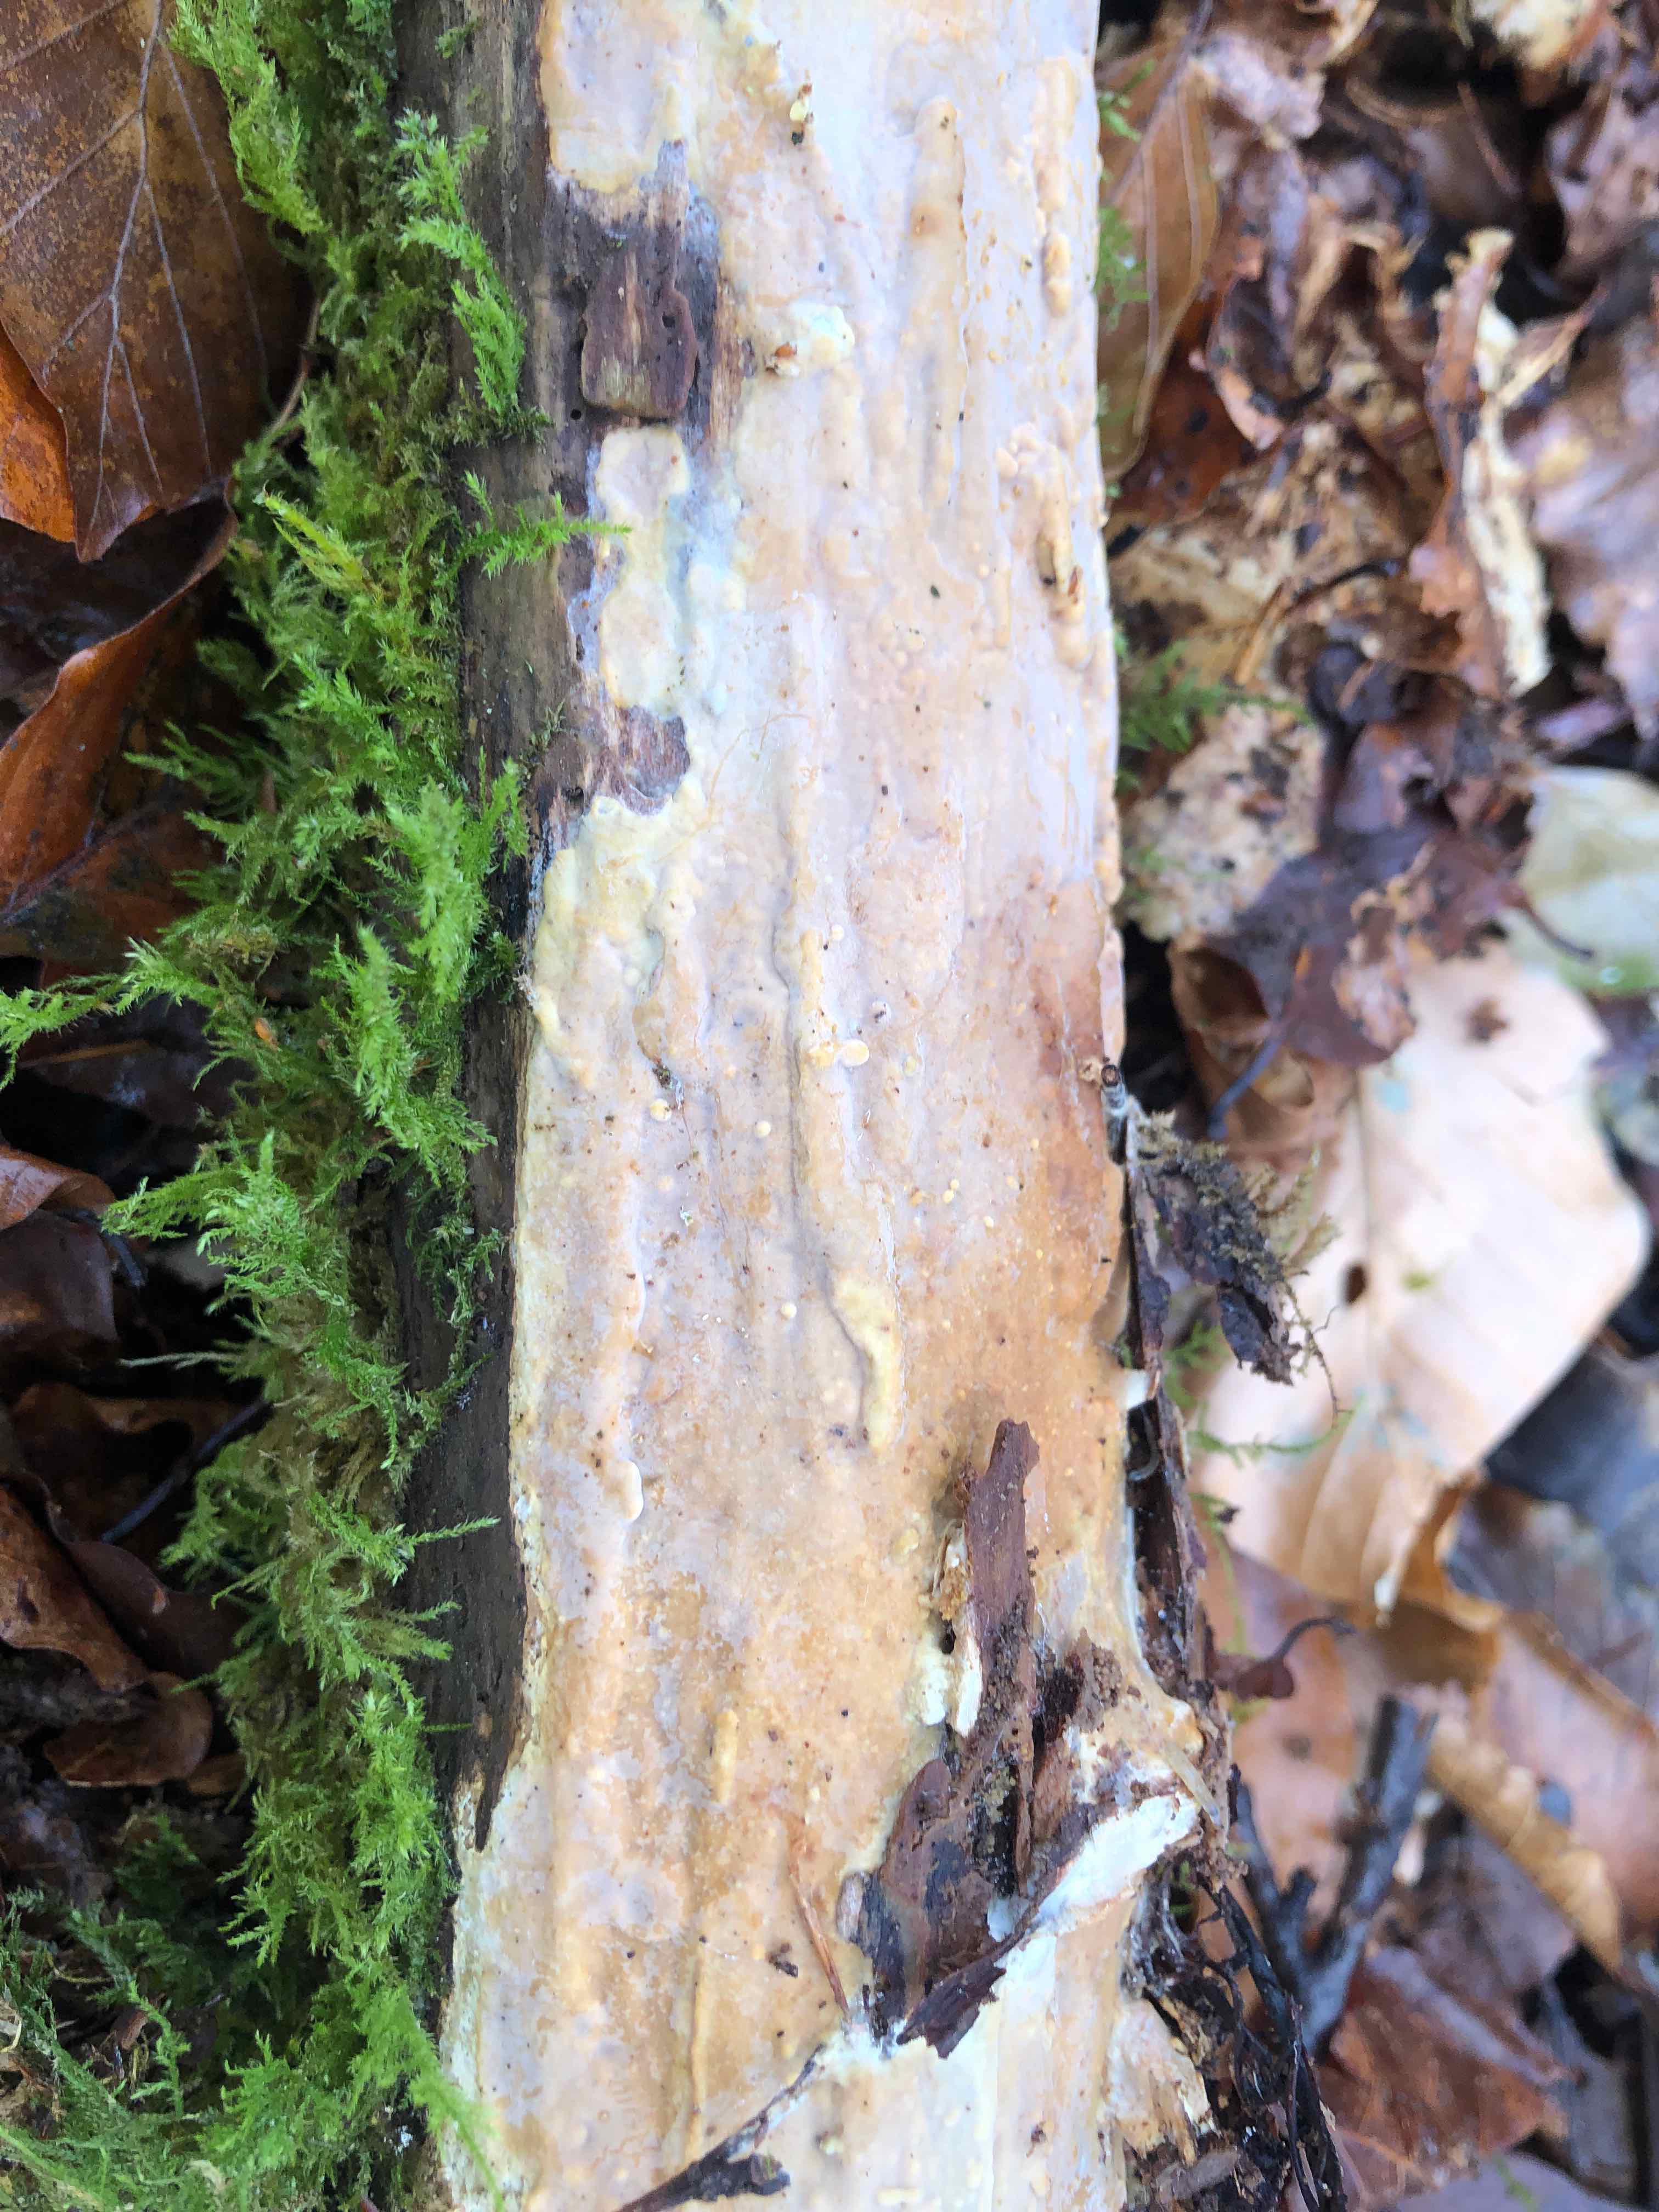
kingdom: Fungi
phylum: Basidiomycota
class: Agaricomycetes
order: Russulales
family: Peniophoraceae
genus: Scytinostroma
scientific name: Scytinostroma hemidichophyticum
